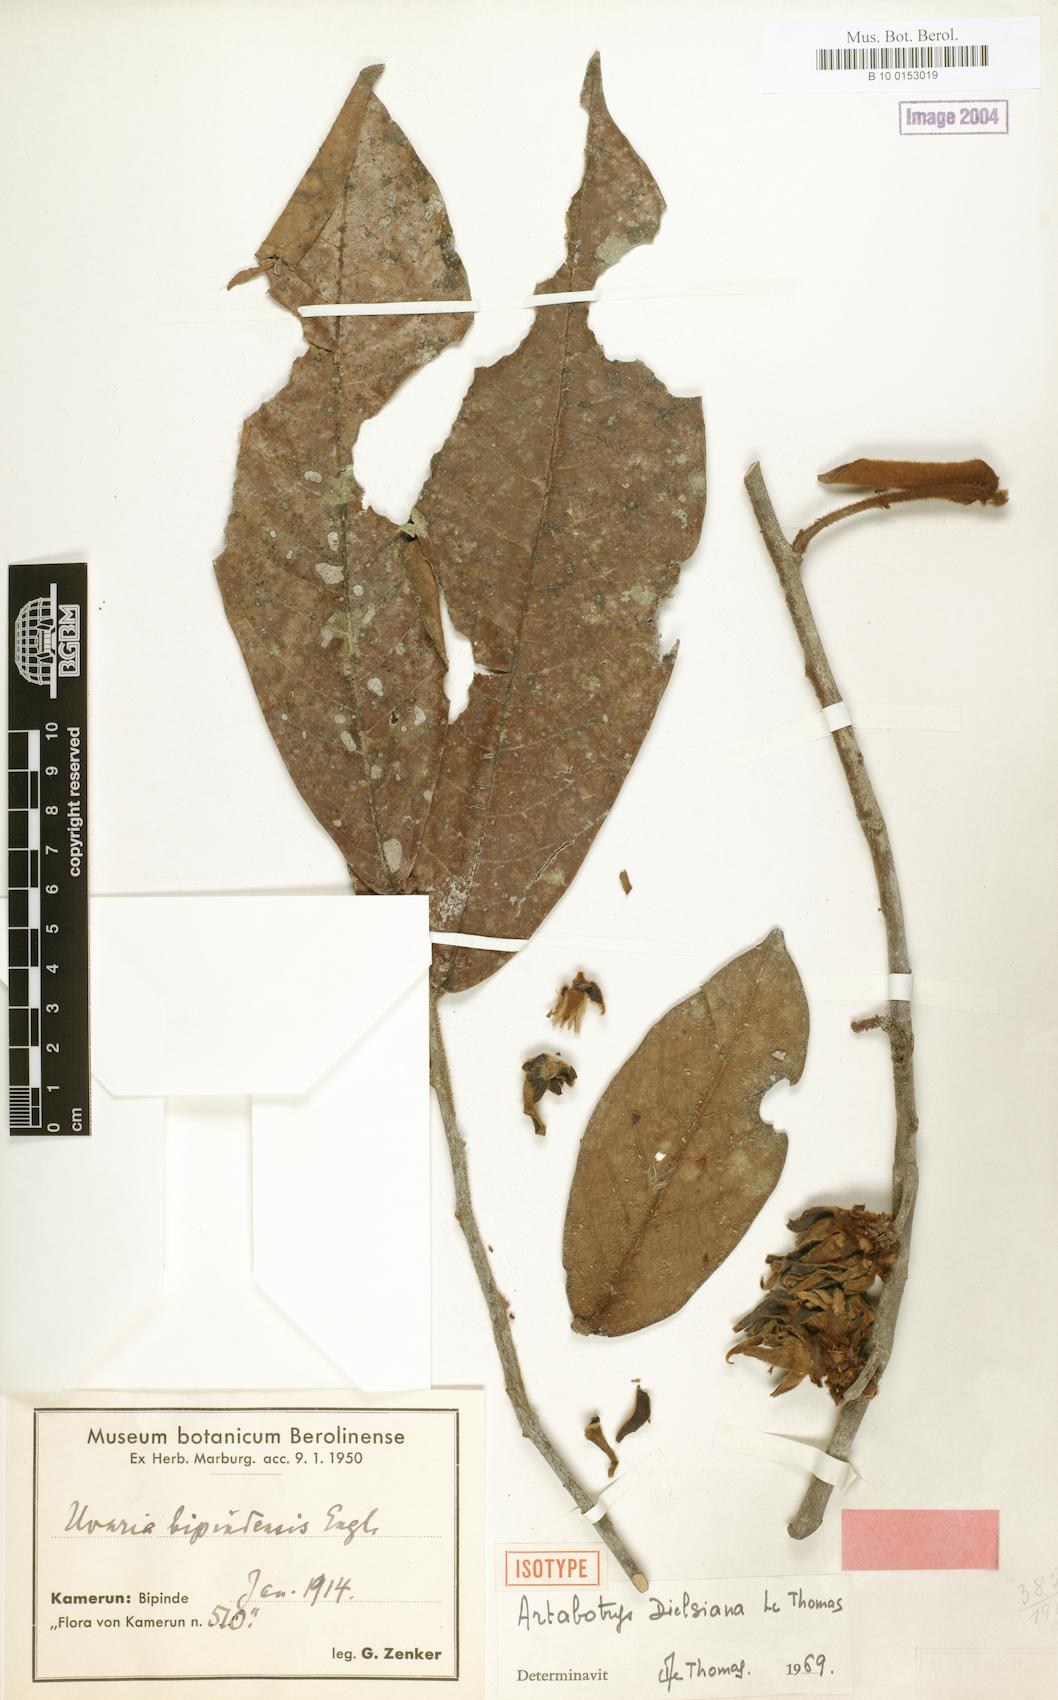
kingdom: Plantae
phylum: Tracheophyta
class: Magnoliopsida
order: Magnoliales
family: Annonaceae
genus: Artabotrys
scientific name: Artabotrys dielsianus
